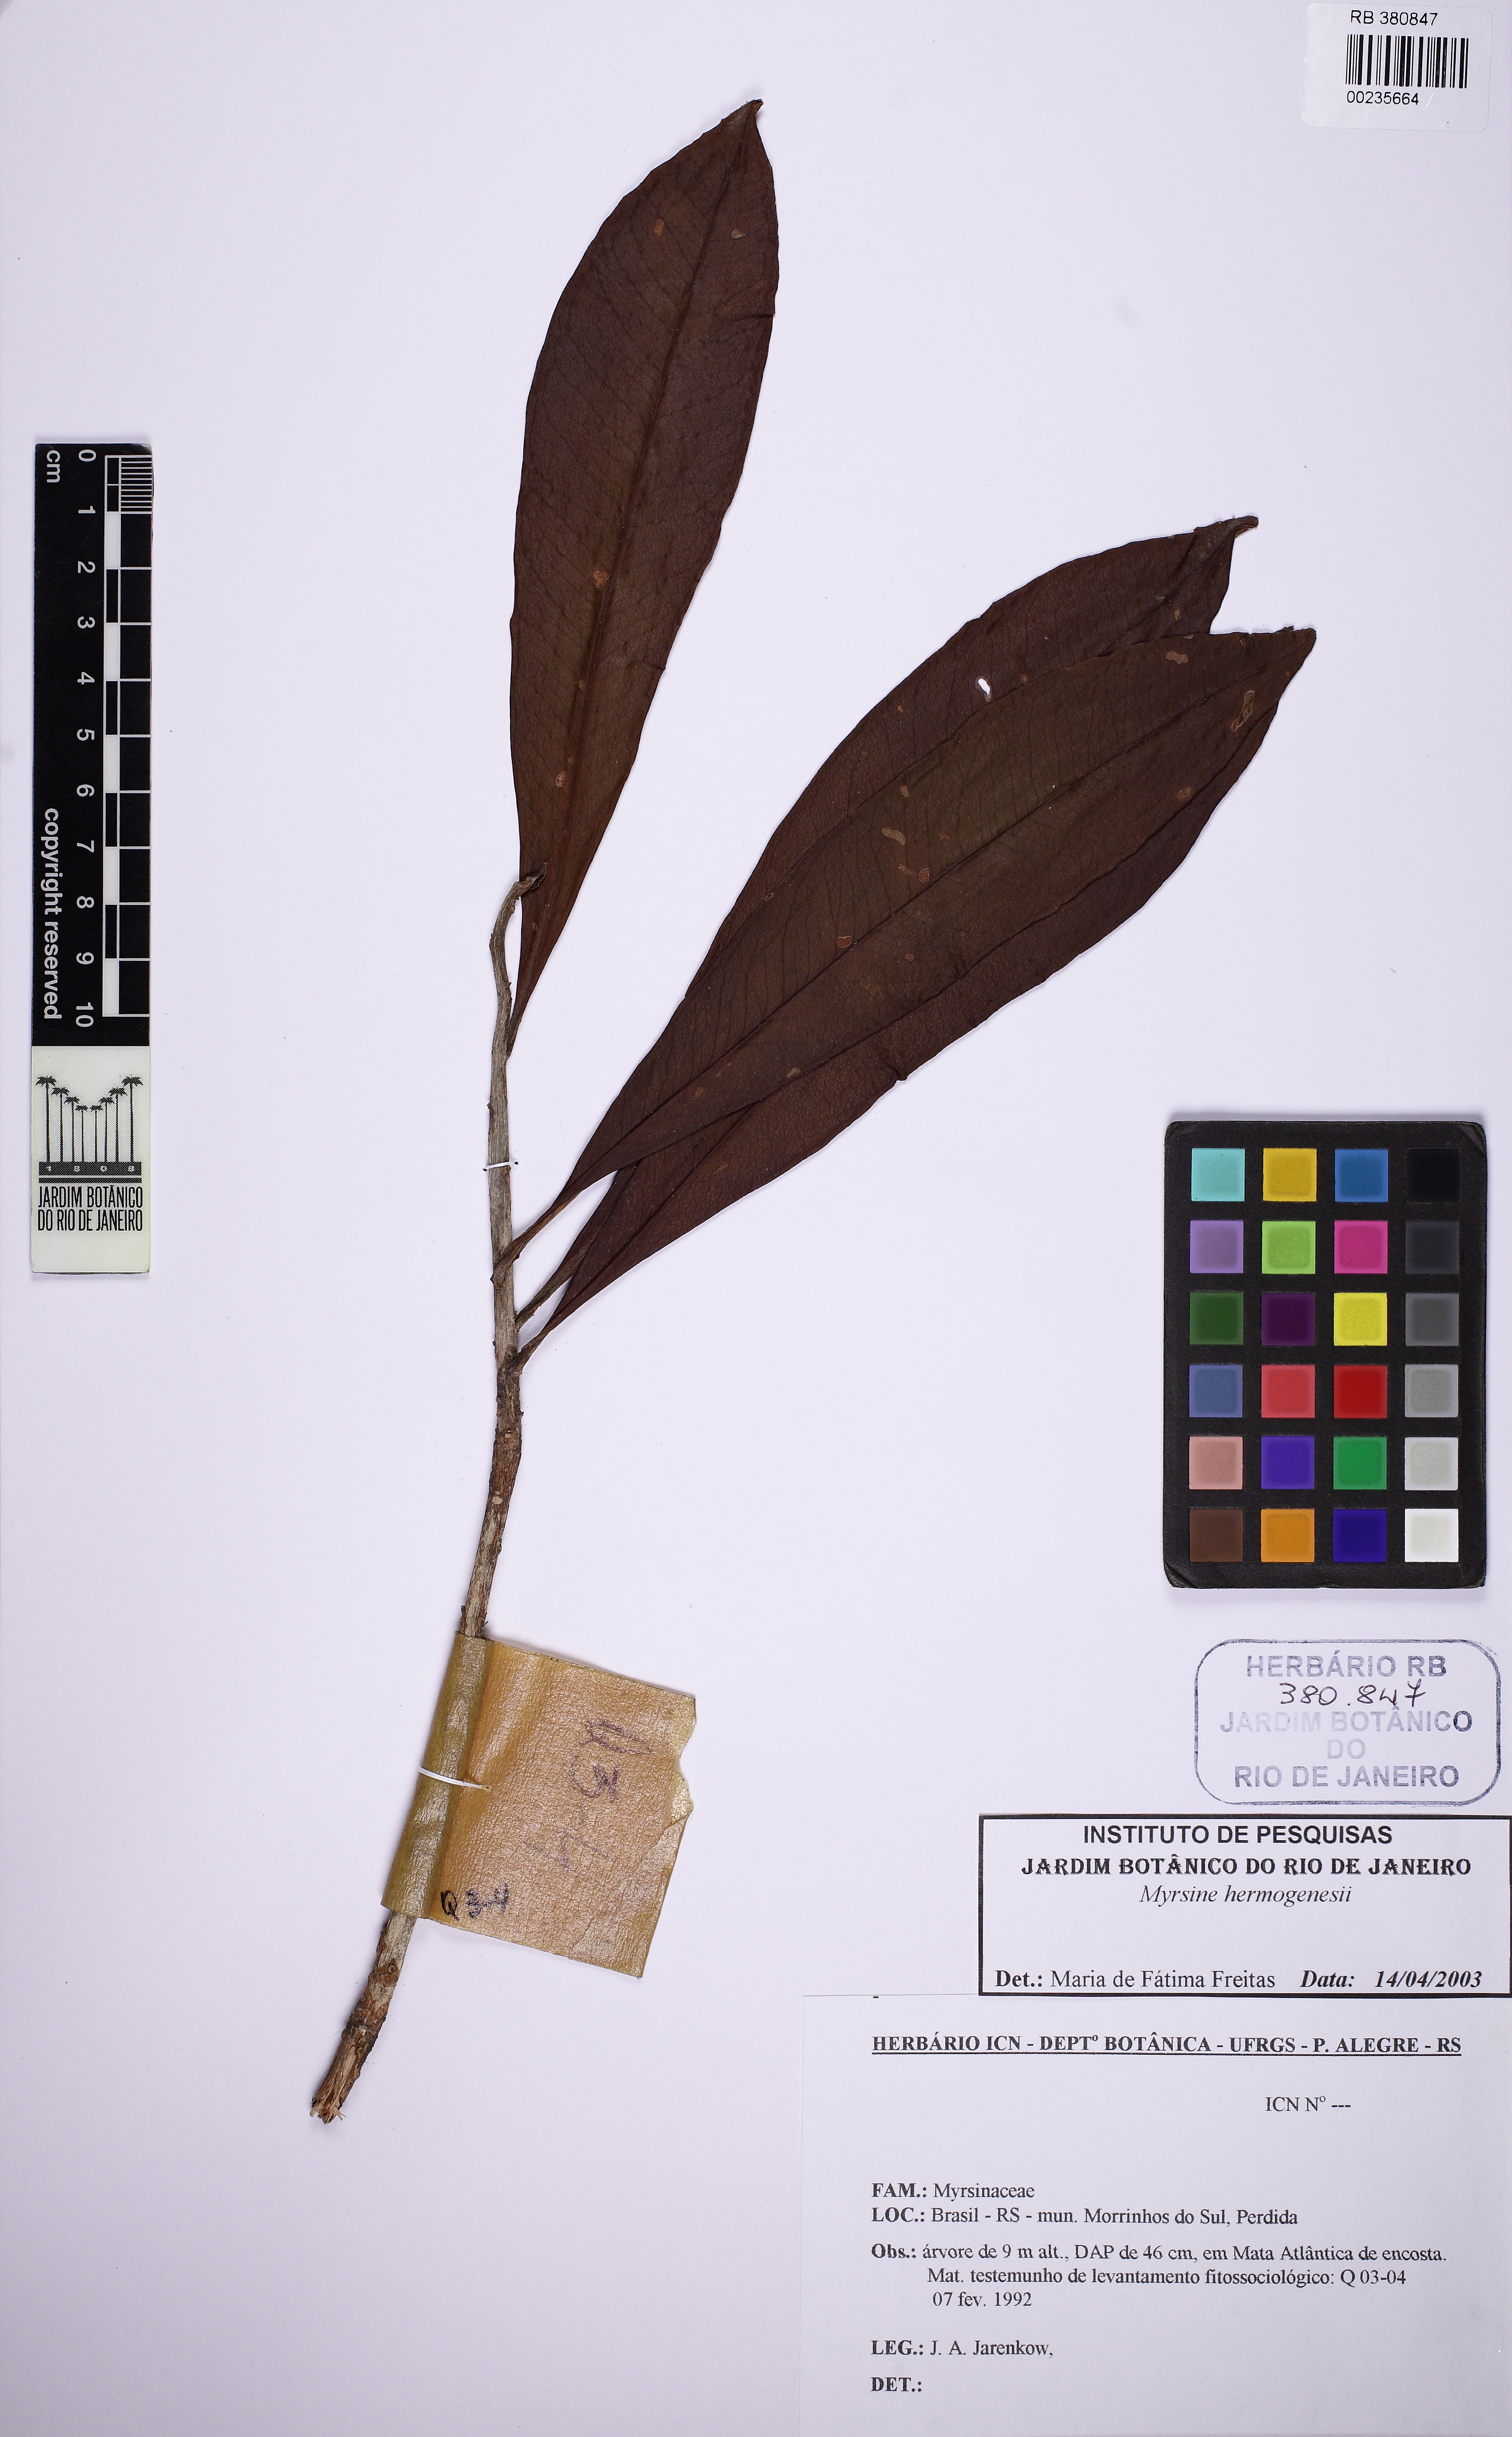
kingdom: Plantae
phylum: Tracheophyta
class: Magnoliopsida
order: Ericales
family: Primulaceae
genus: Myrsine
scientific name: Myrsine hermogenesii
